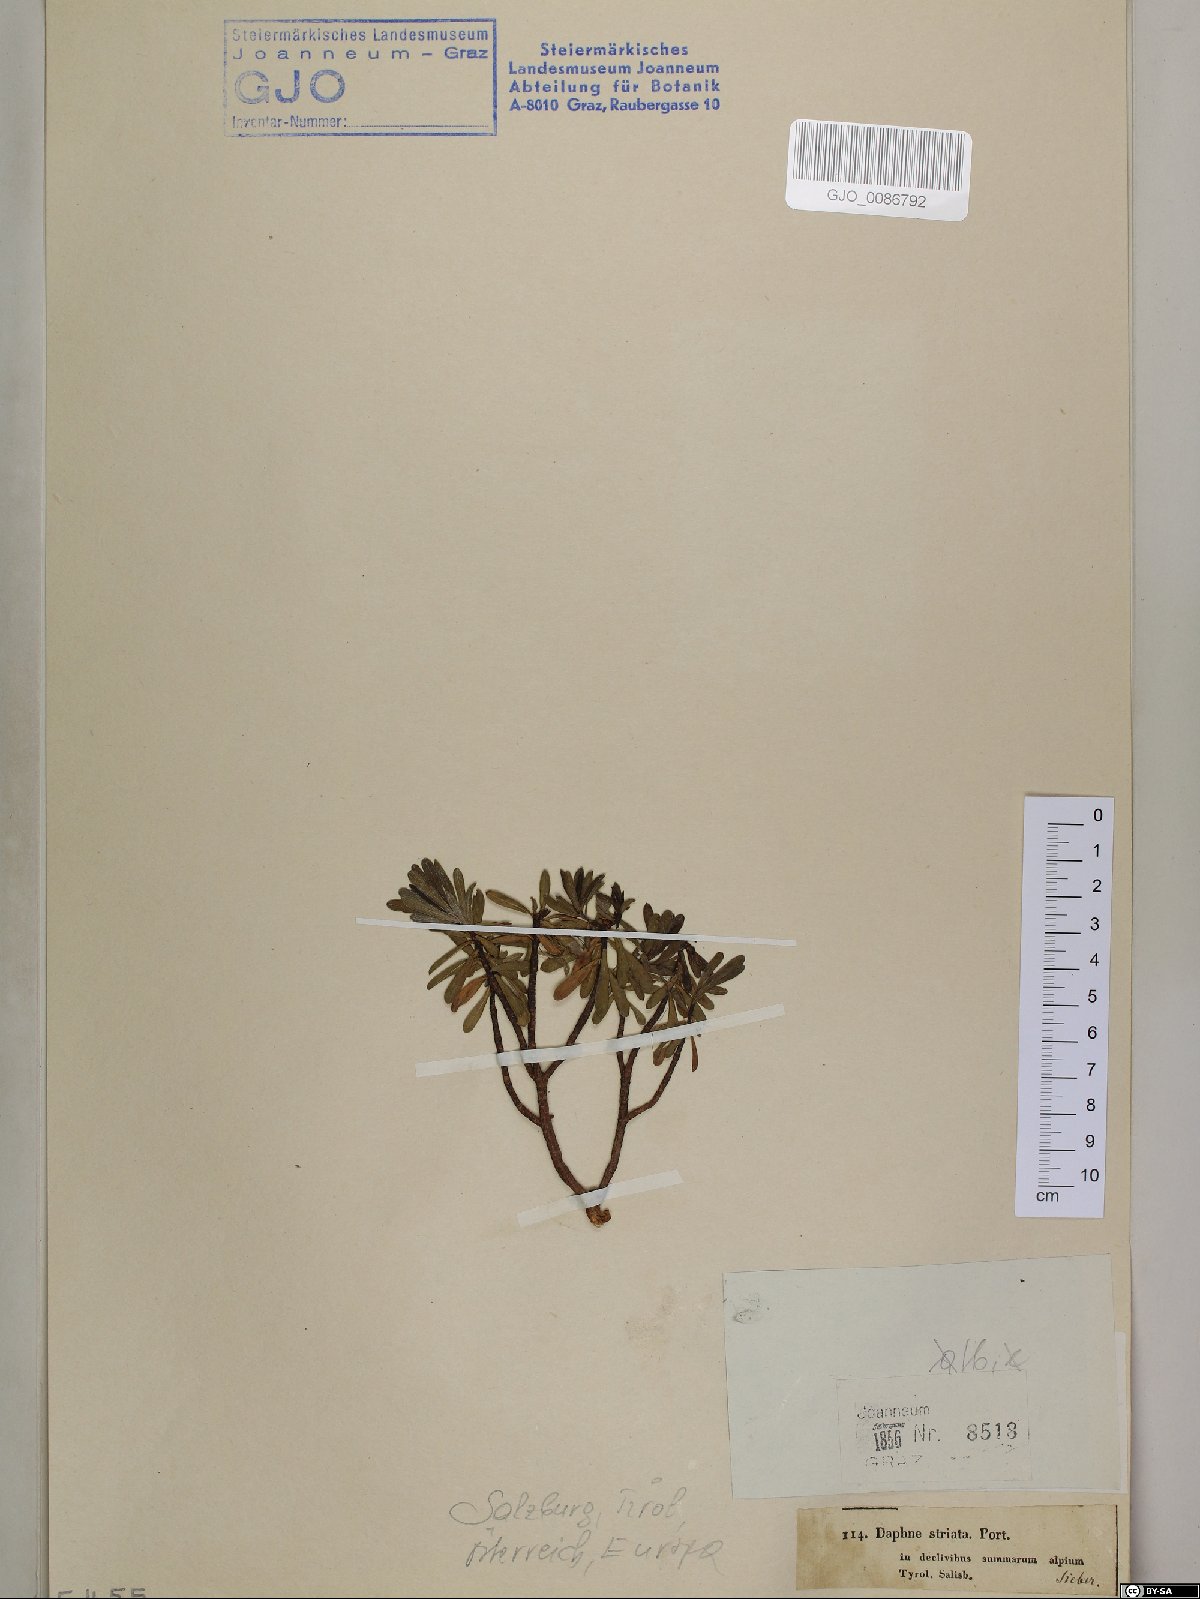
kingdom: Plantae
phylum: Tracheophyta
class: Magnoliopsida
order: Malvales
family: Thymelaeaceae
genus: Daphne
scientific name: Daphne striata
